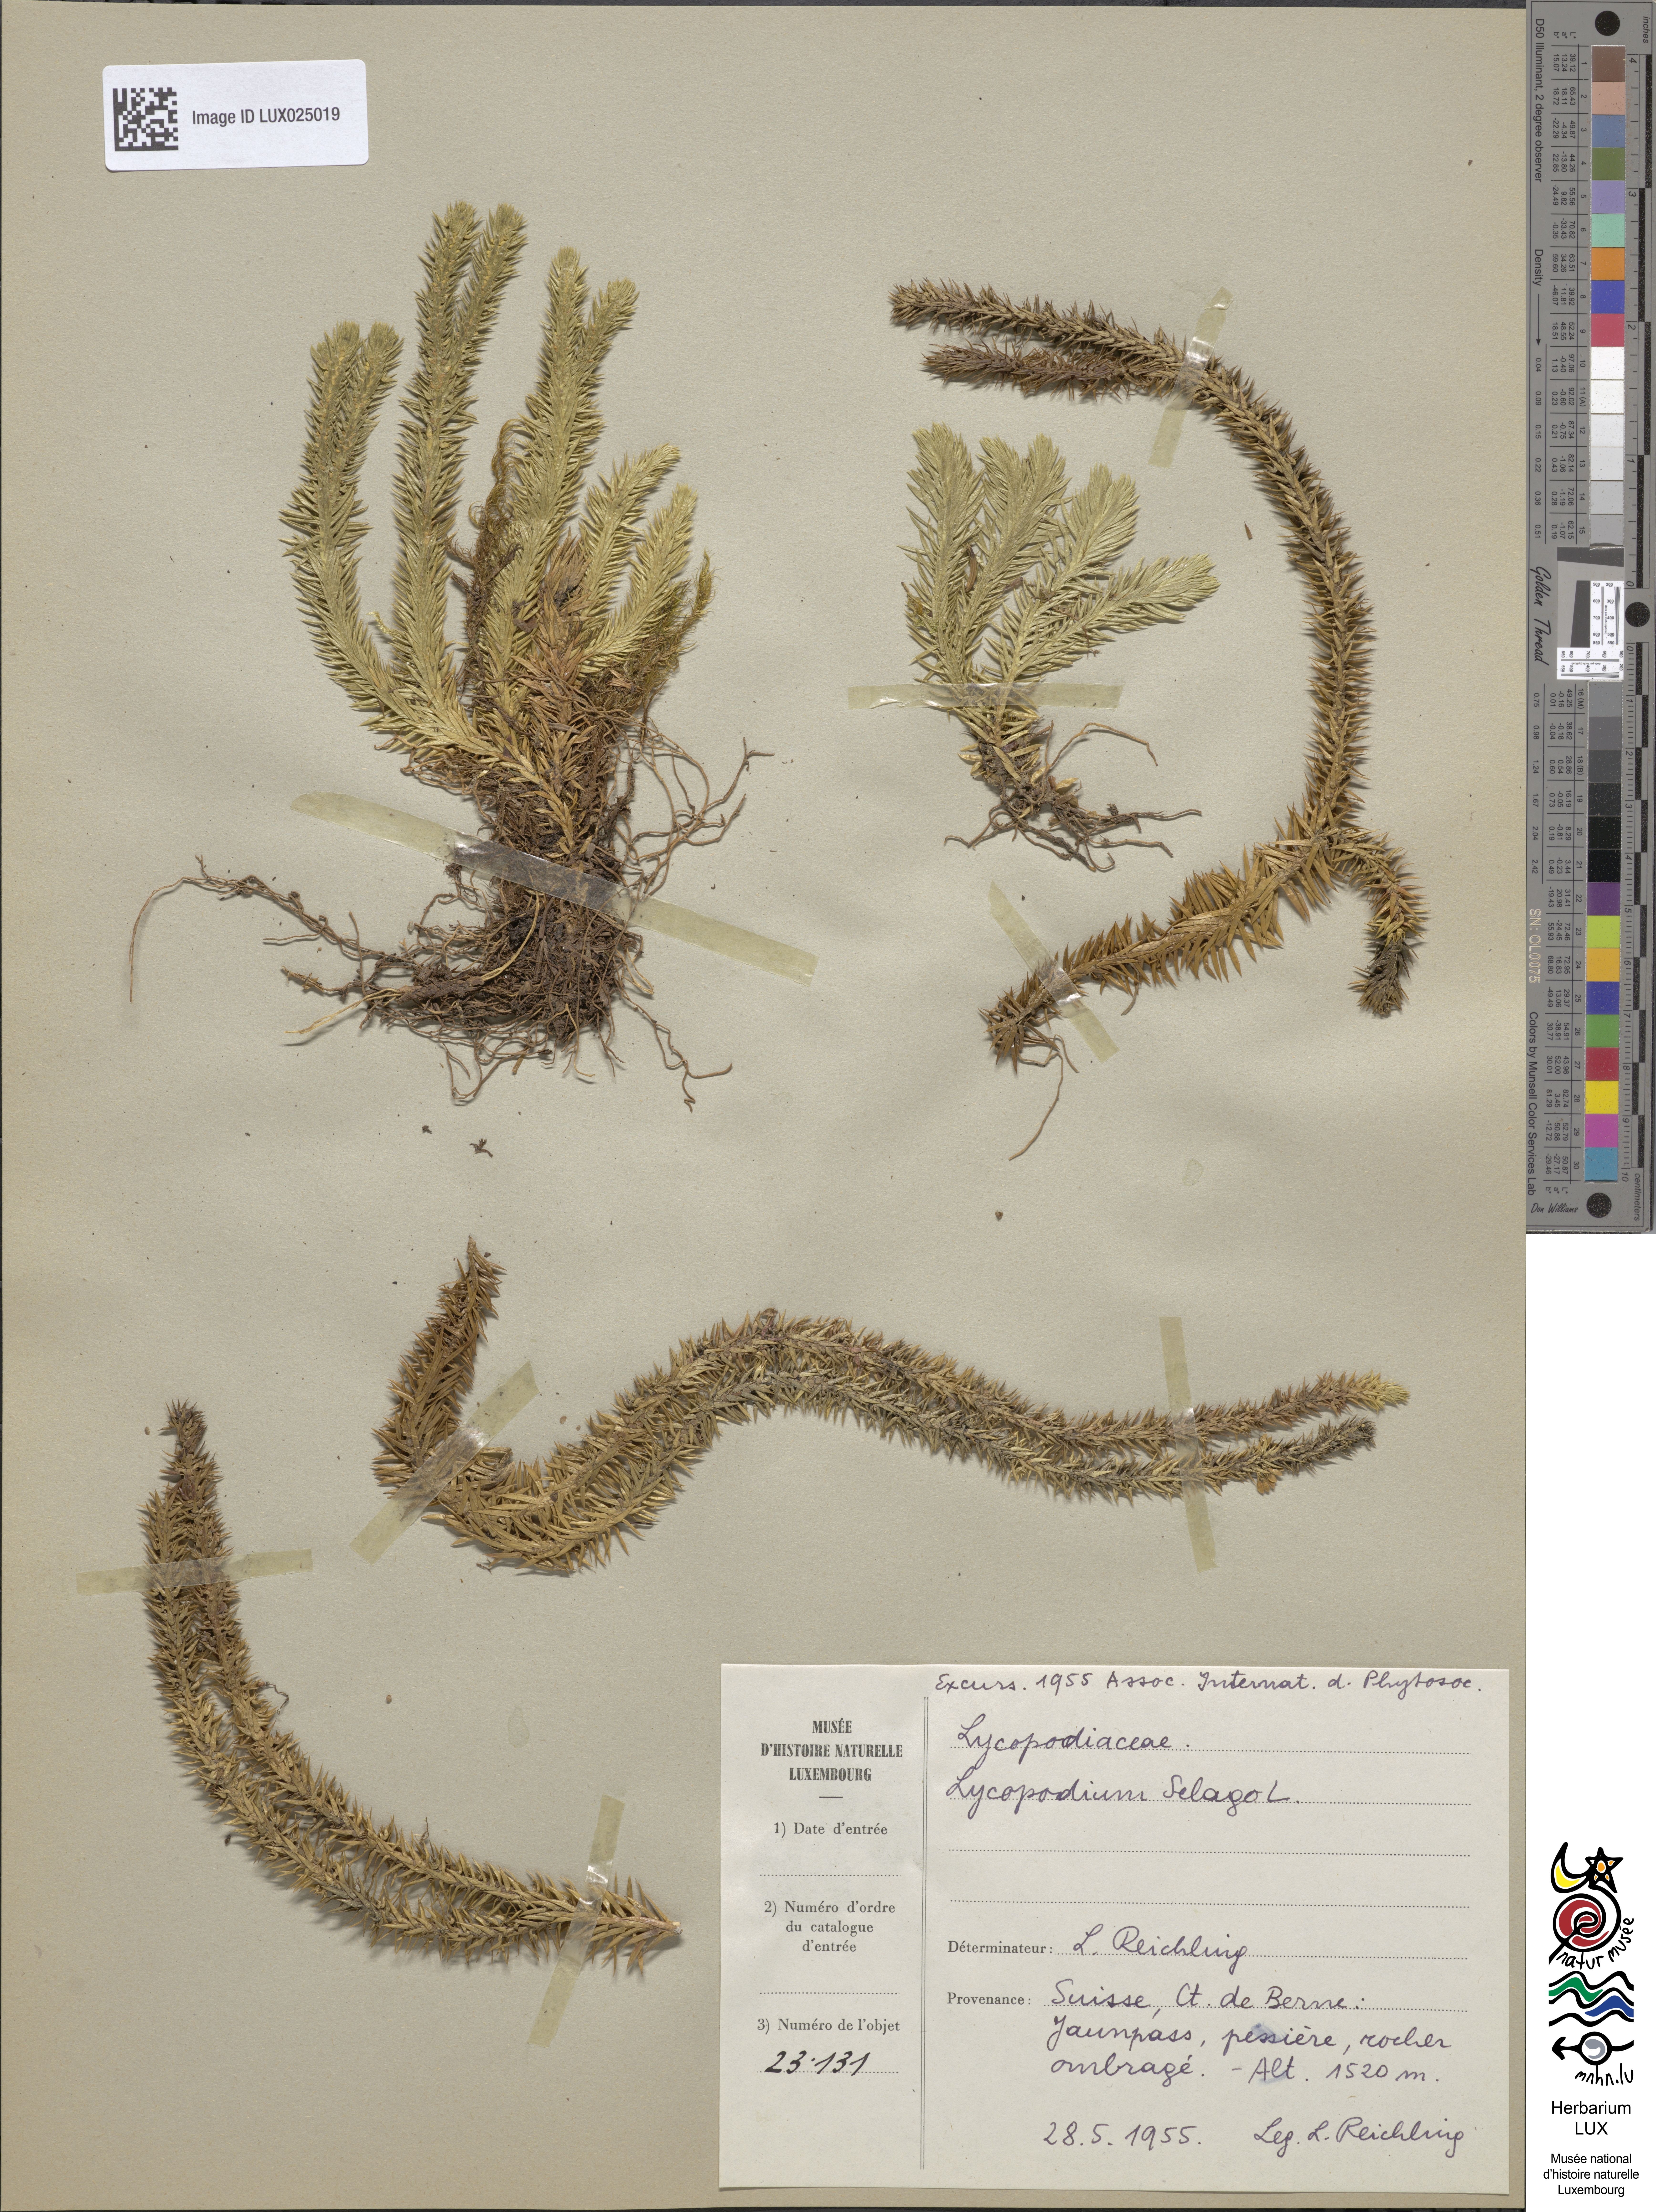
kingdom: Plantae
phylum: Tracheophyta
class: Lycopodiopsida
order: Lycopodiales
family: Lycopodiaceae
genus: Huperzia
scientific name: Huperzia selago
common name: Northern firmoss
